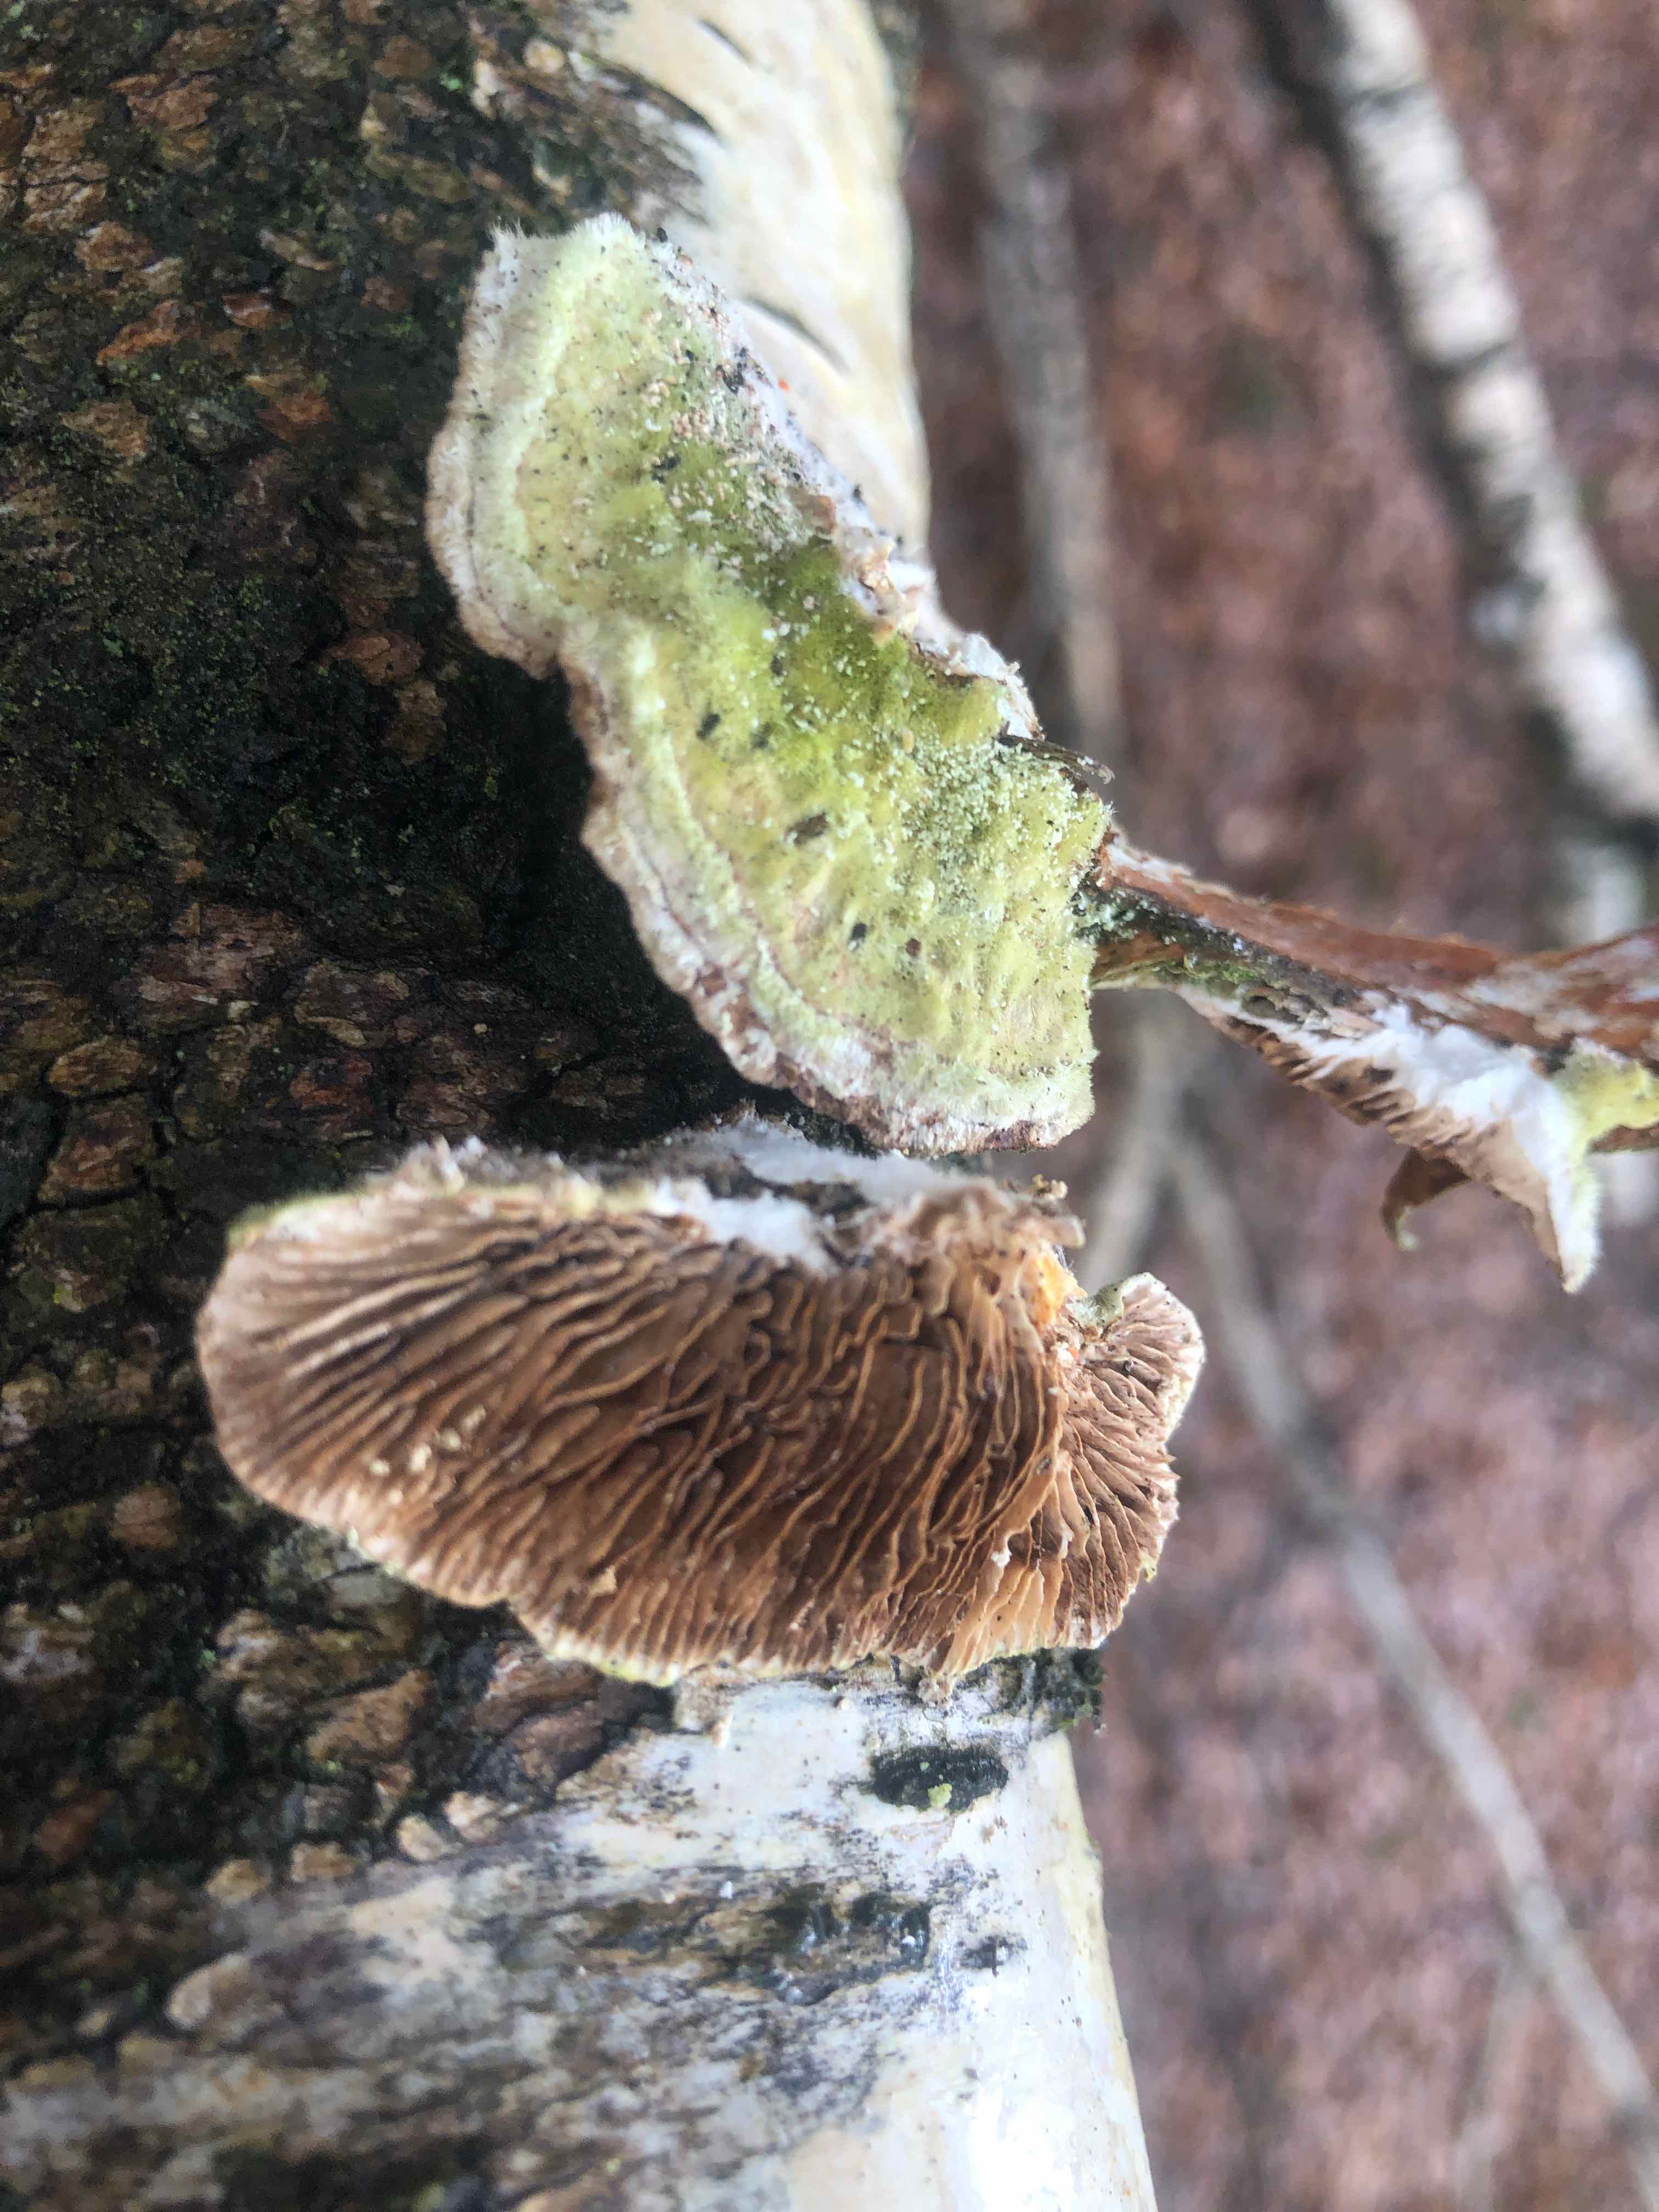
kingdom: Fungi
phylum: Basidiomycota
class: Agaricomycetes
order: Polyporales
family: Polyporaceae
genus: Lenzites
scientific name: Lenzites betulinus
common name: birke-læderporesvamp
